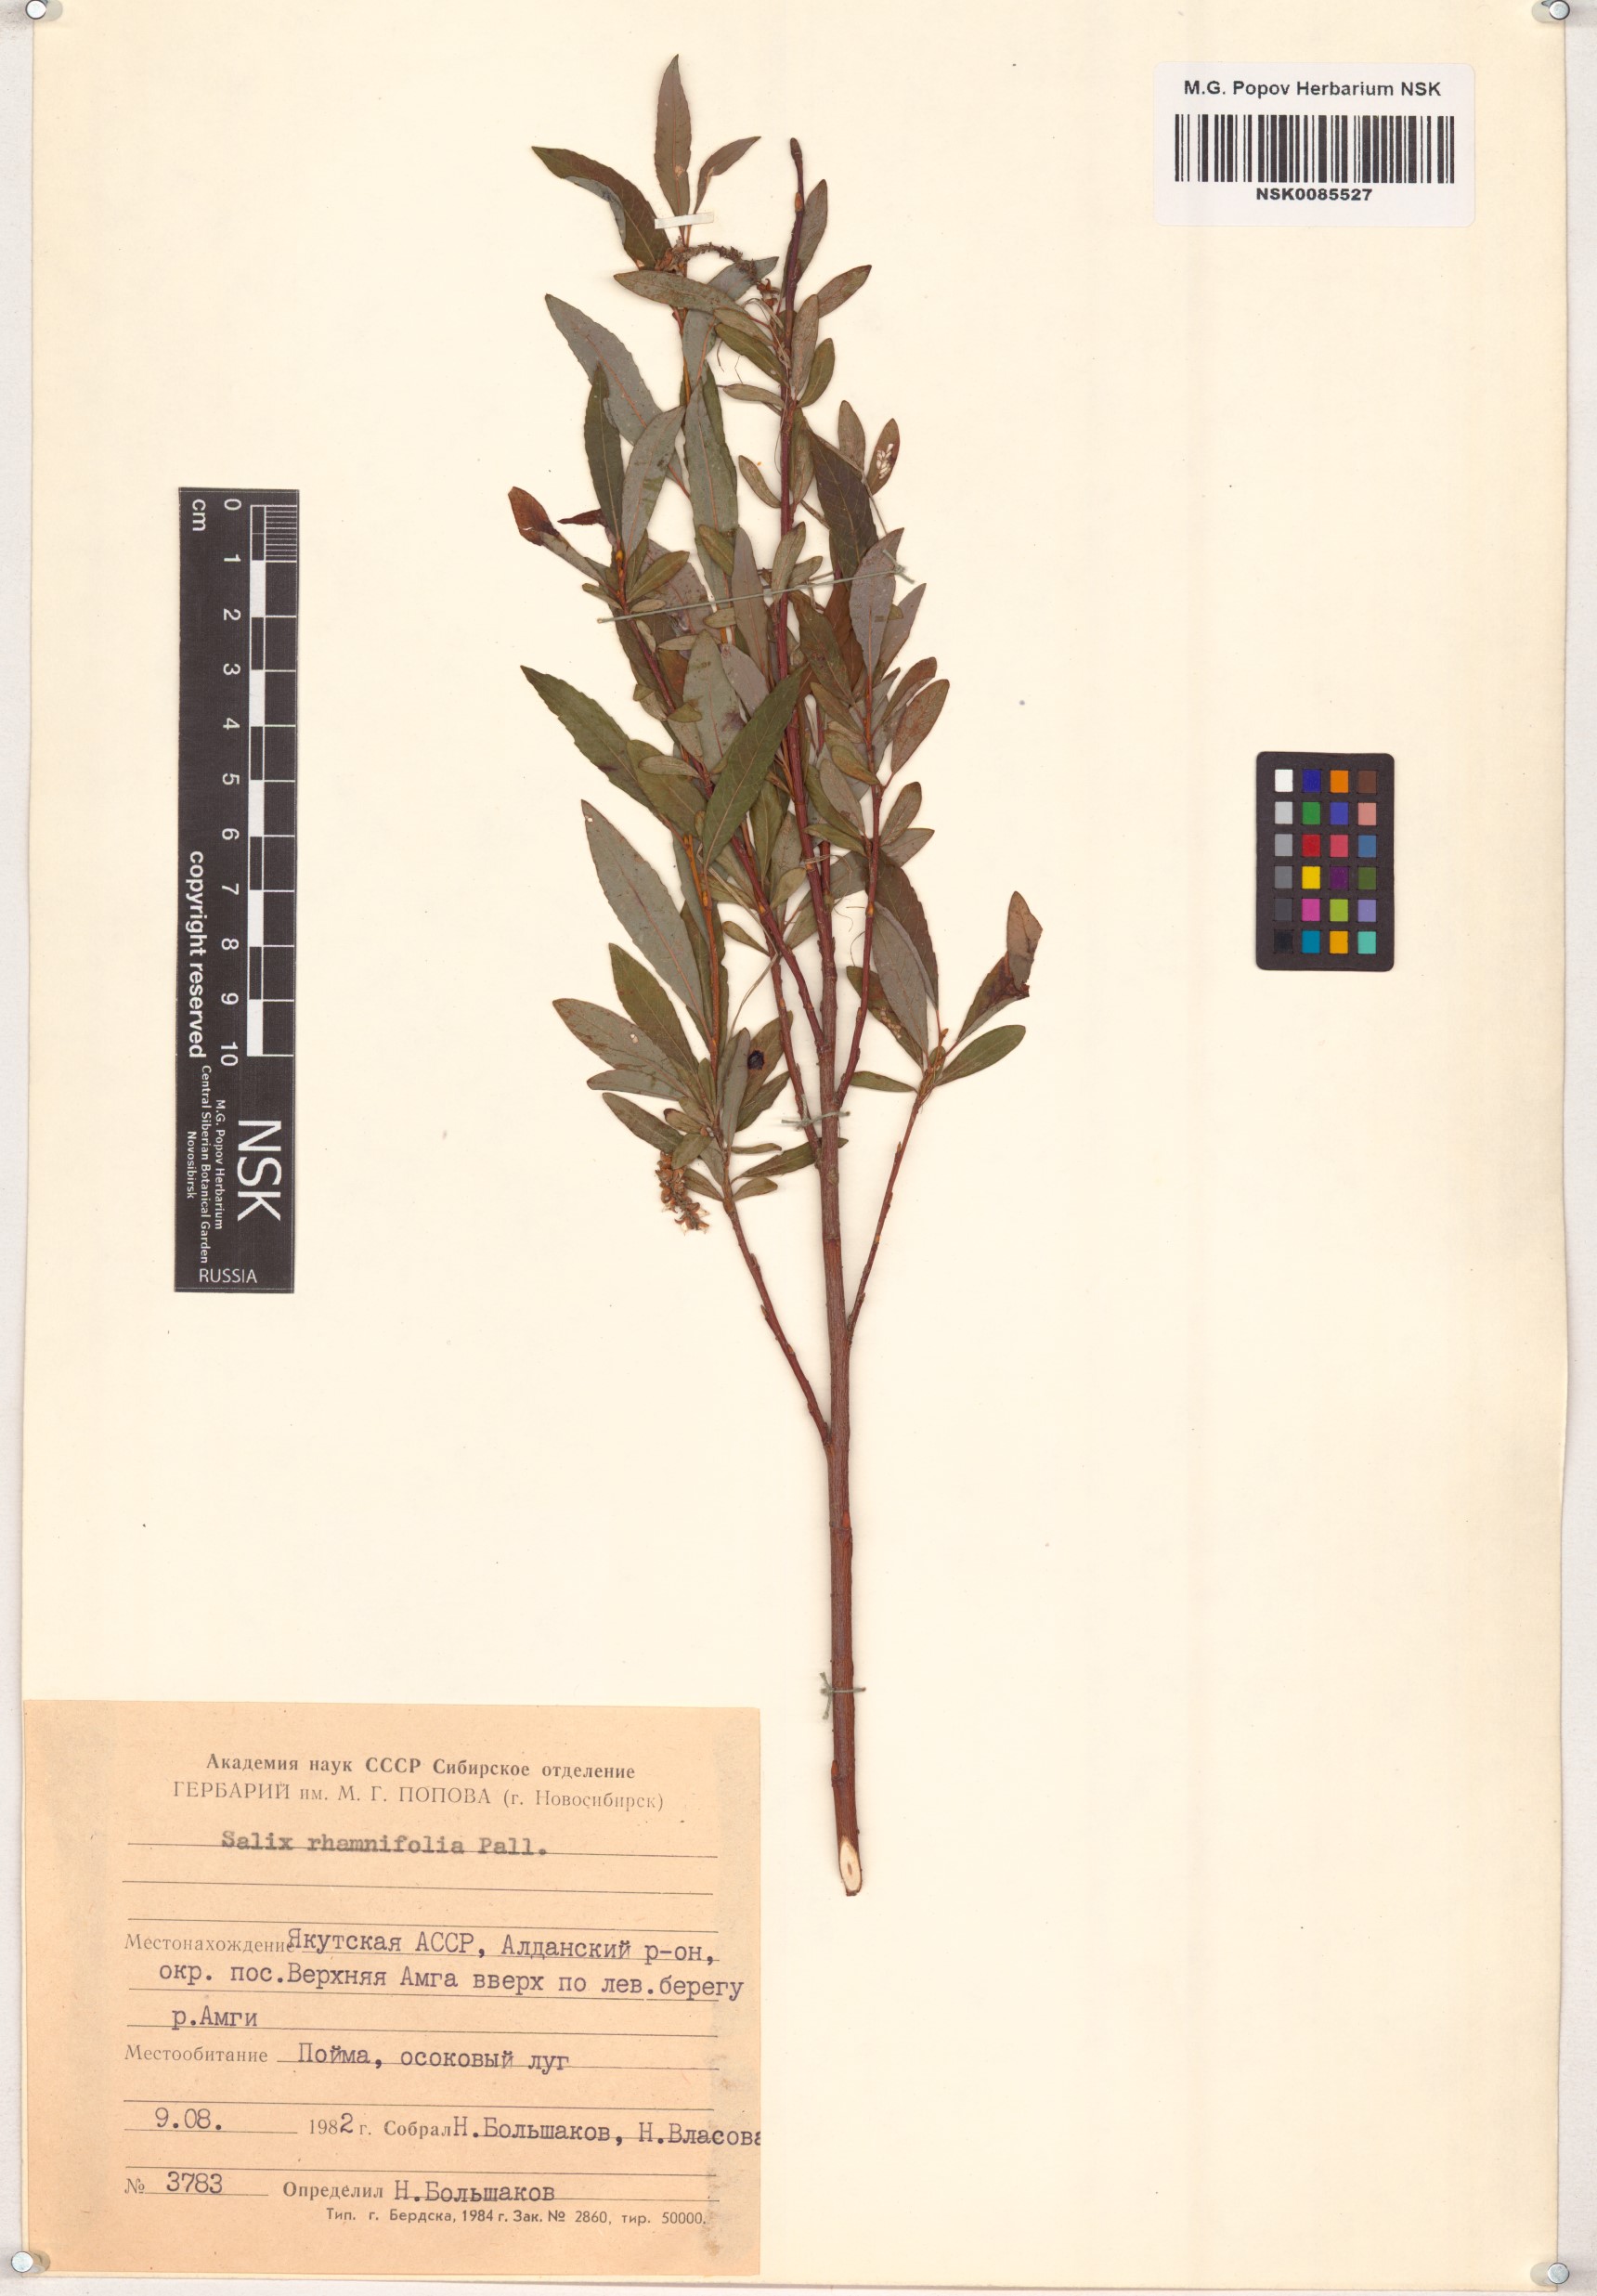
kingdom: Plantae
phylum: Tracheophyta
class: Magnoliopsida
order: Malpighiales
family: Salicaceae
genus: Salix
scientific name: Salix rhamnifolia
